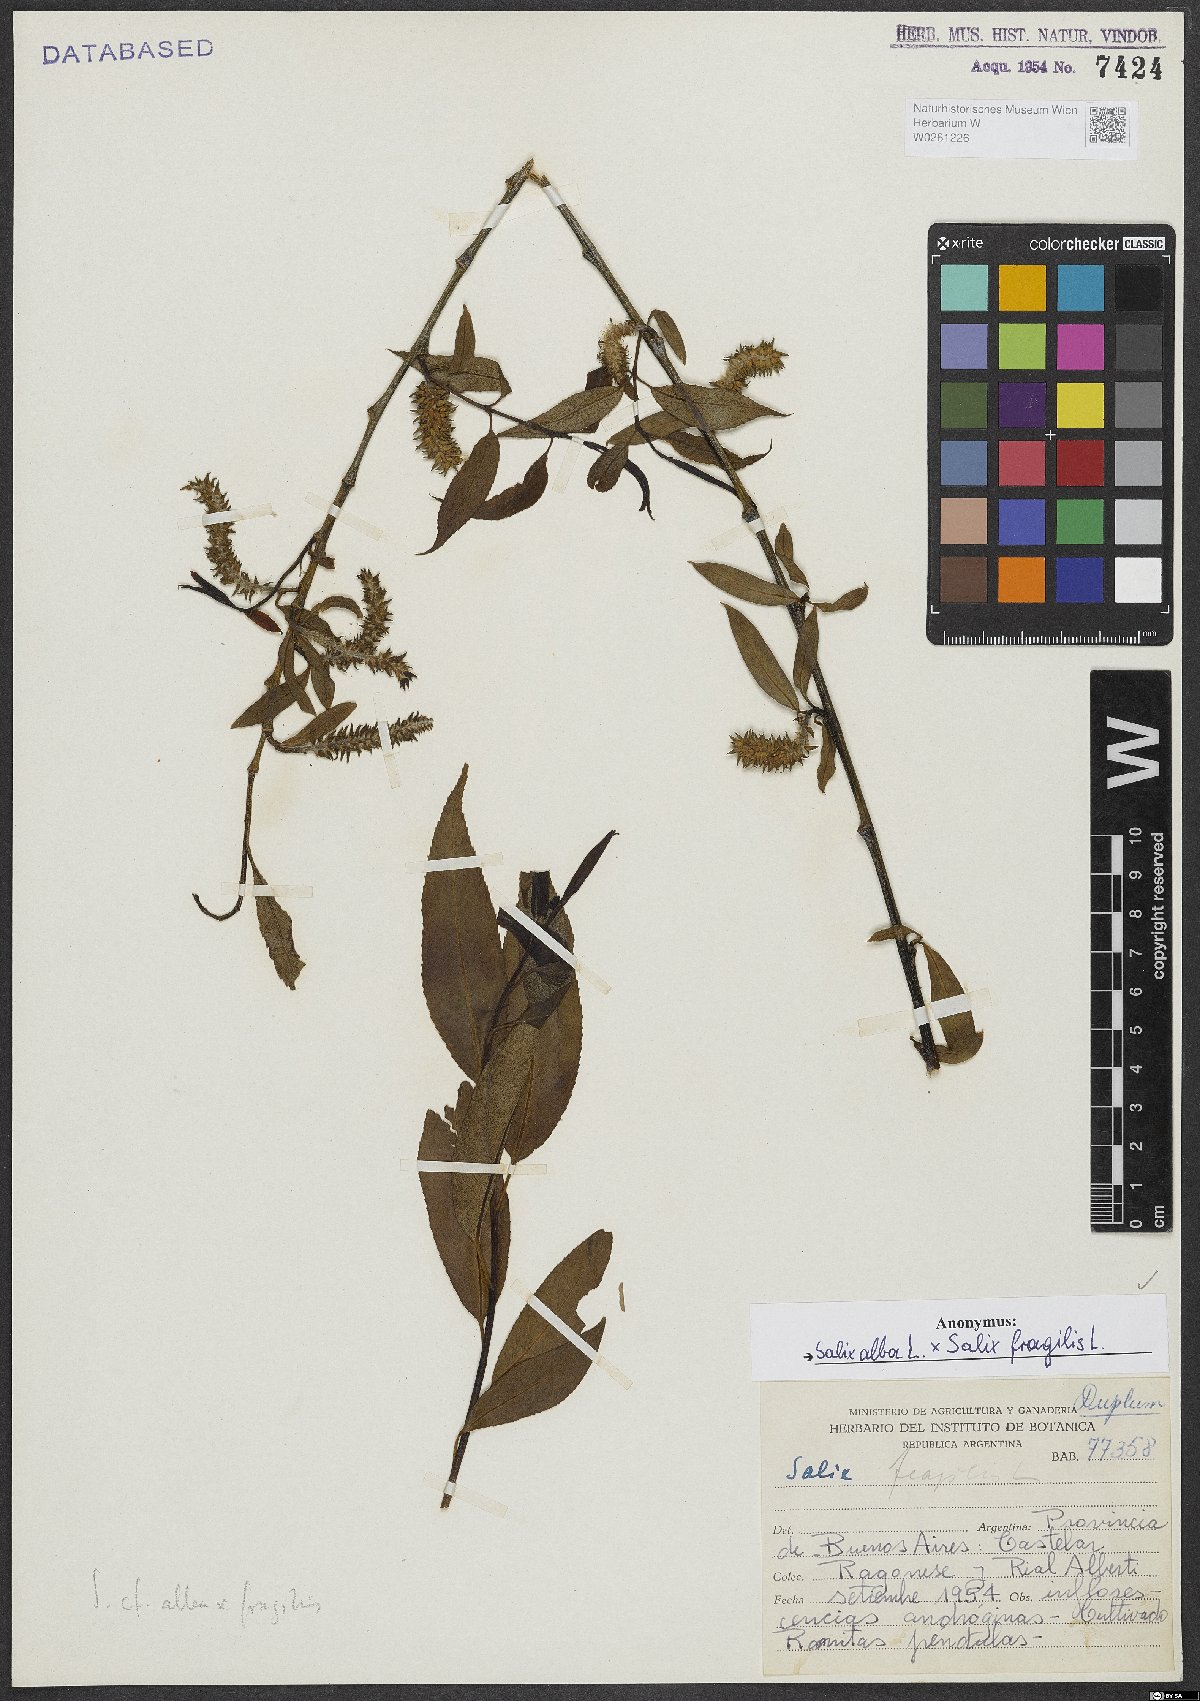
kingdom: Plantae
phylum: Tracheophyta
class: Magnoliopsida
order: Malpighiales
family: Salicaceae
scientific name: Salicaceae
